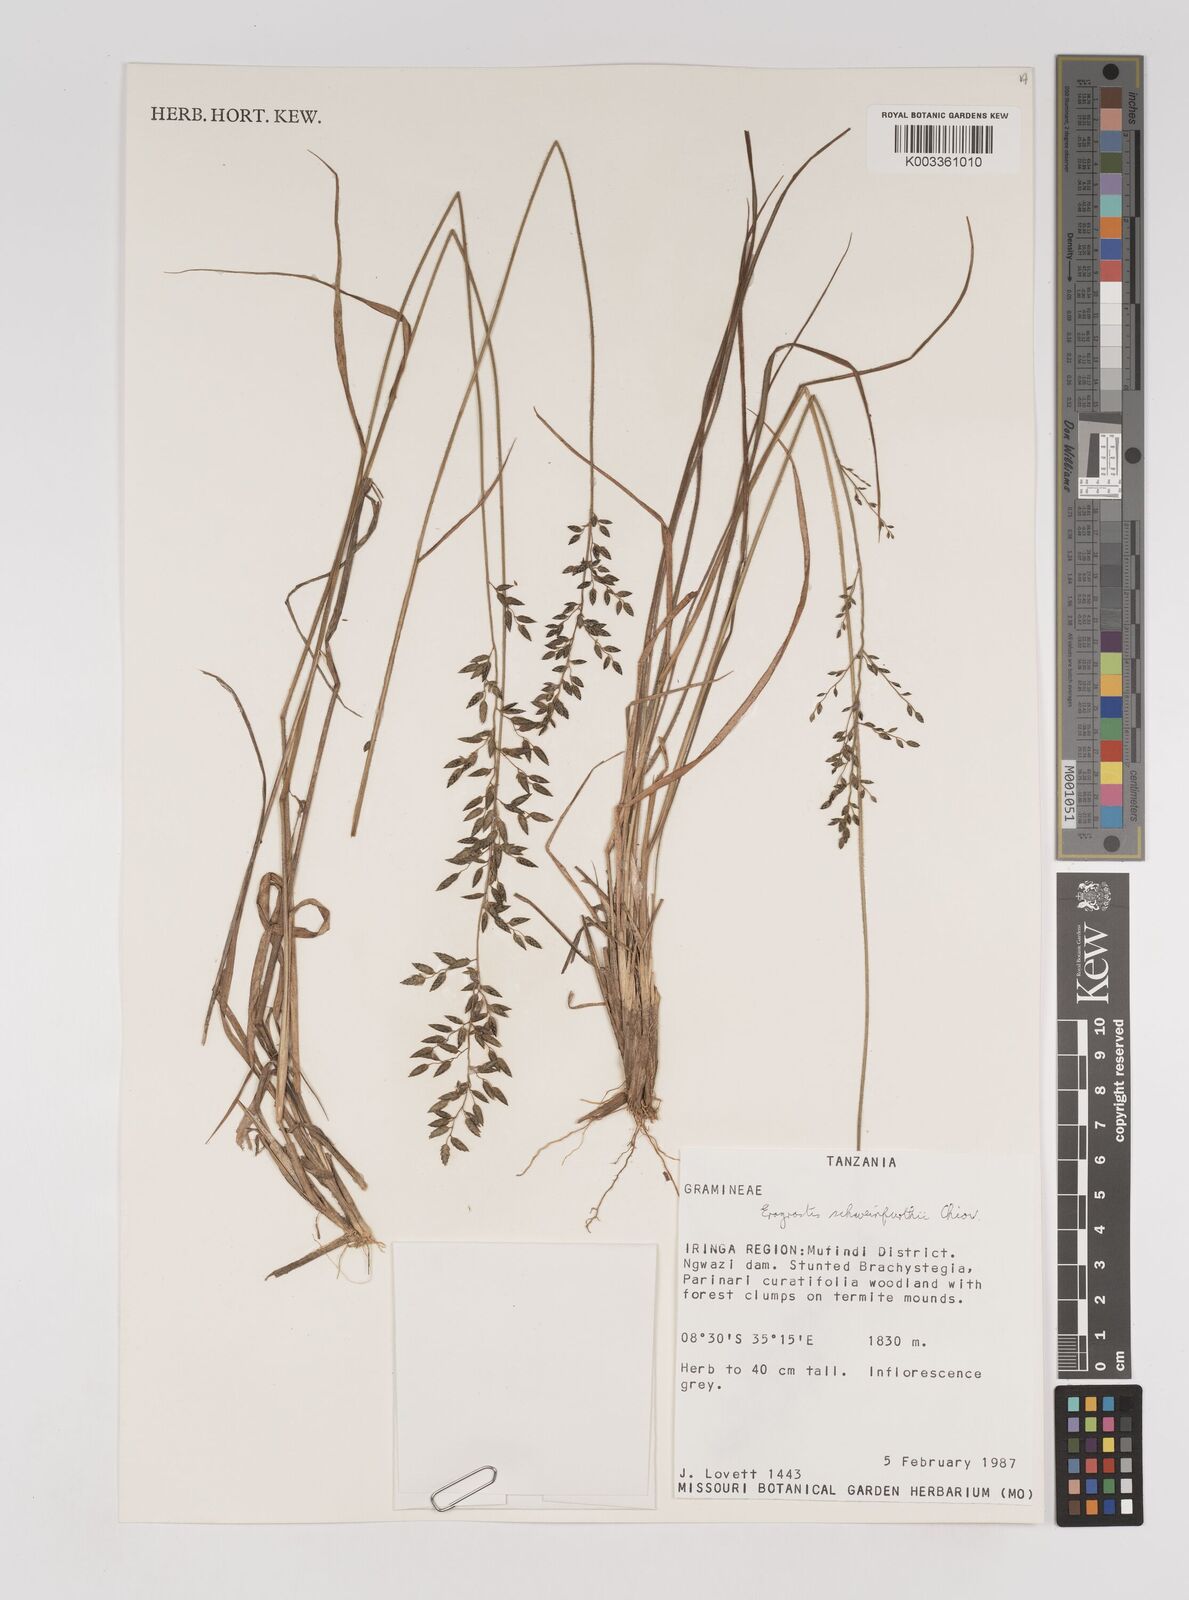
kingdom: Plantae
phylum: Tracheophyta
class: Liliopsida
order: Poales
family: Poaceae
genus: Eragrostis
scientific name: Eragrostis schweinfurthii
